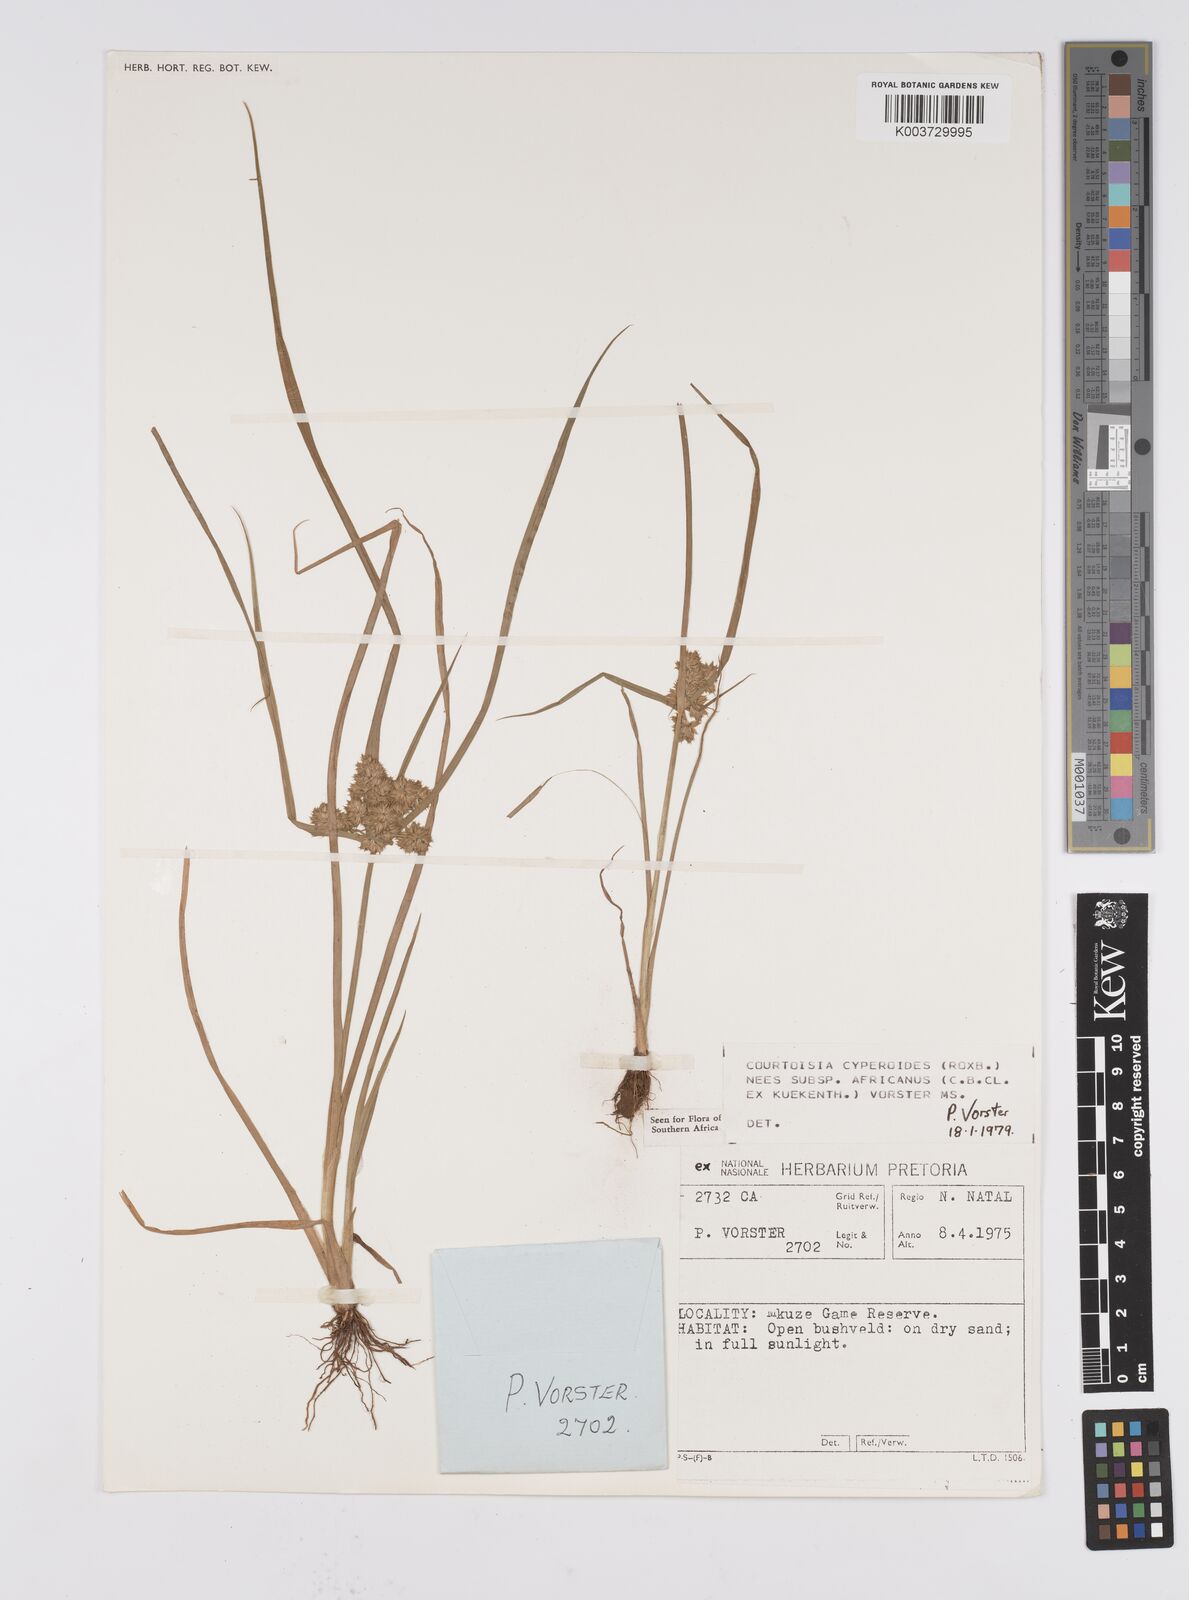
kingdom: Plantae
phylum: Tracheophyta
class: Liliopsida
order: Poales
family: Cyperaceae
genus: Cyperus
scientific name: Cyperus cyperoides
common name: Pacific island flat sedge
